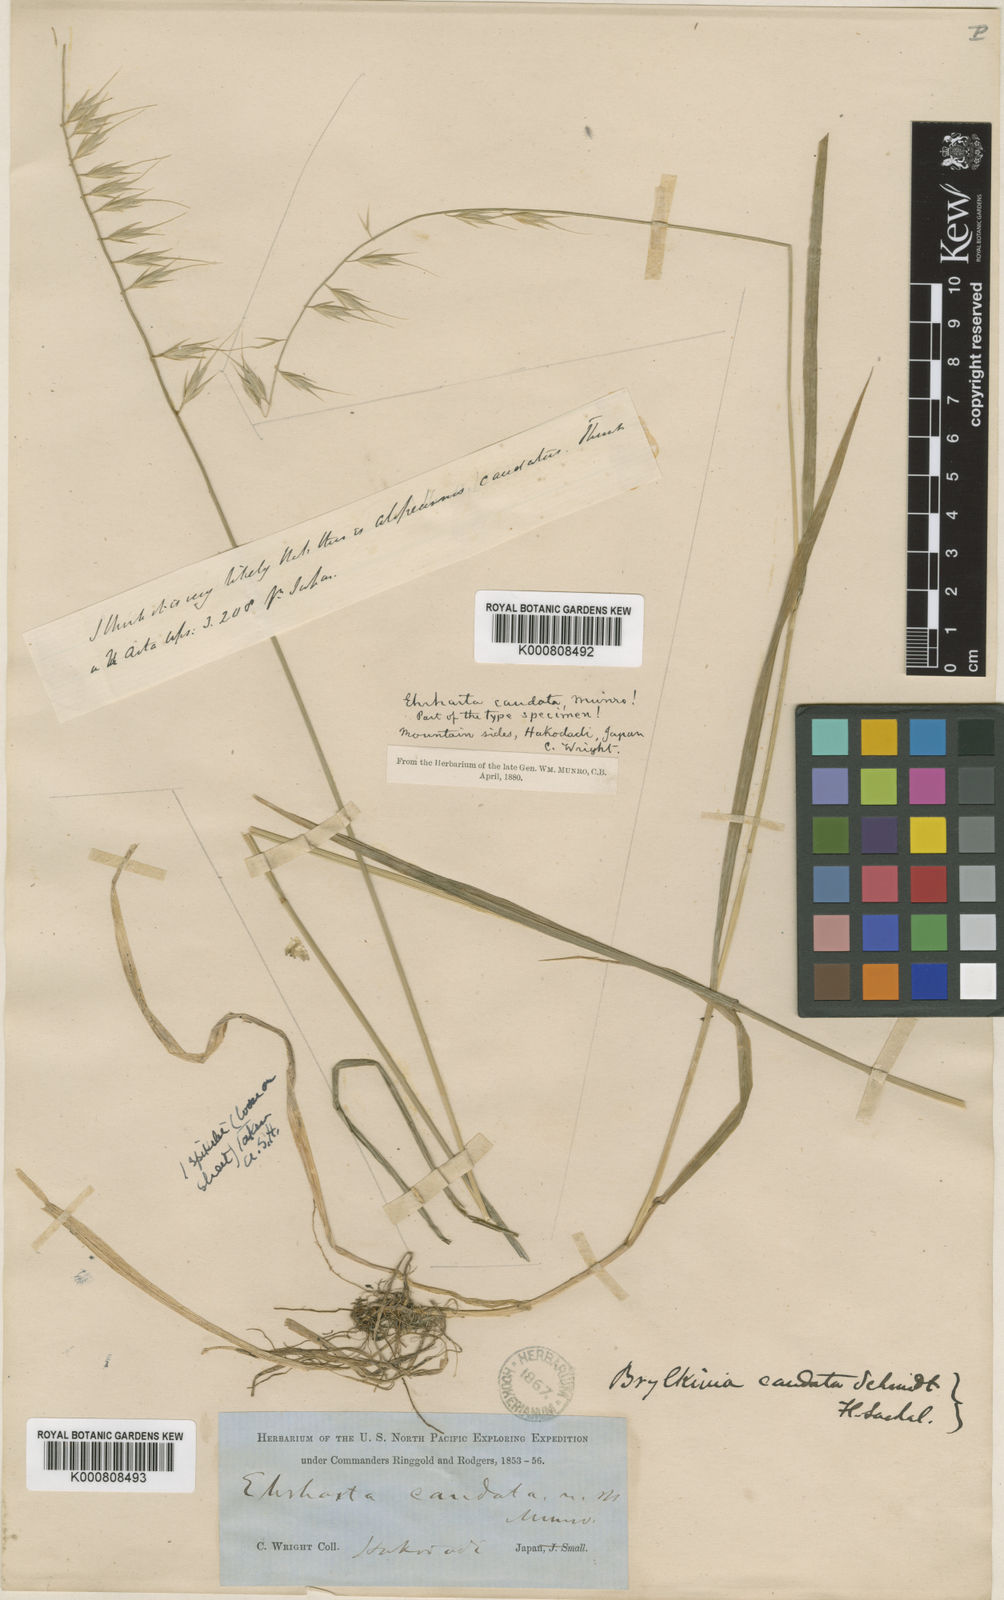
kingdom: Plantae
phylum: Tracheophyta
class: Liliopsida
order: Poales
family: Poaceae
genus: Brylkinia
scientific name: Brylkinia caudata
